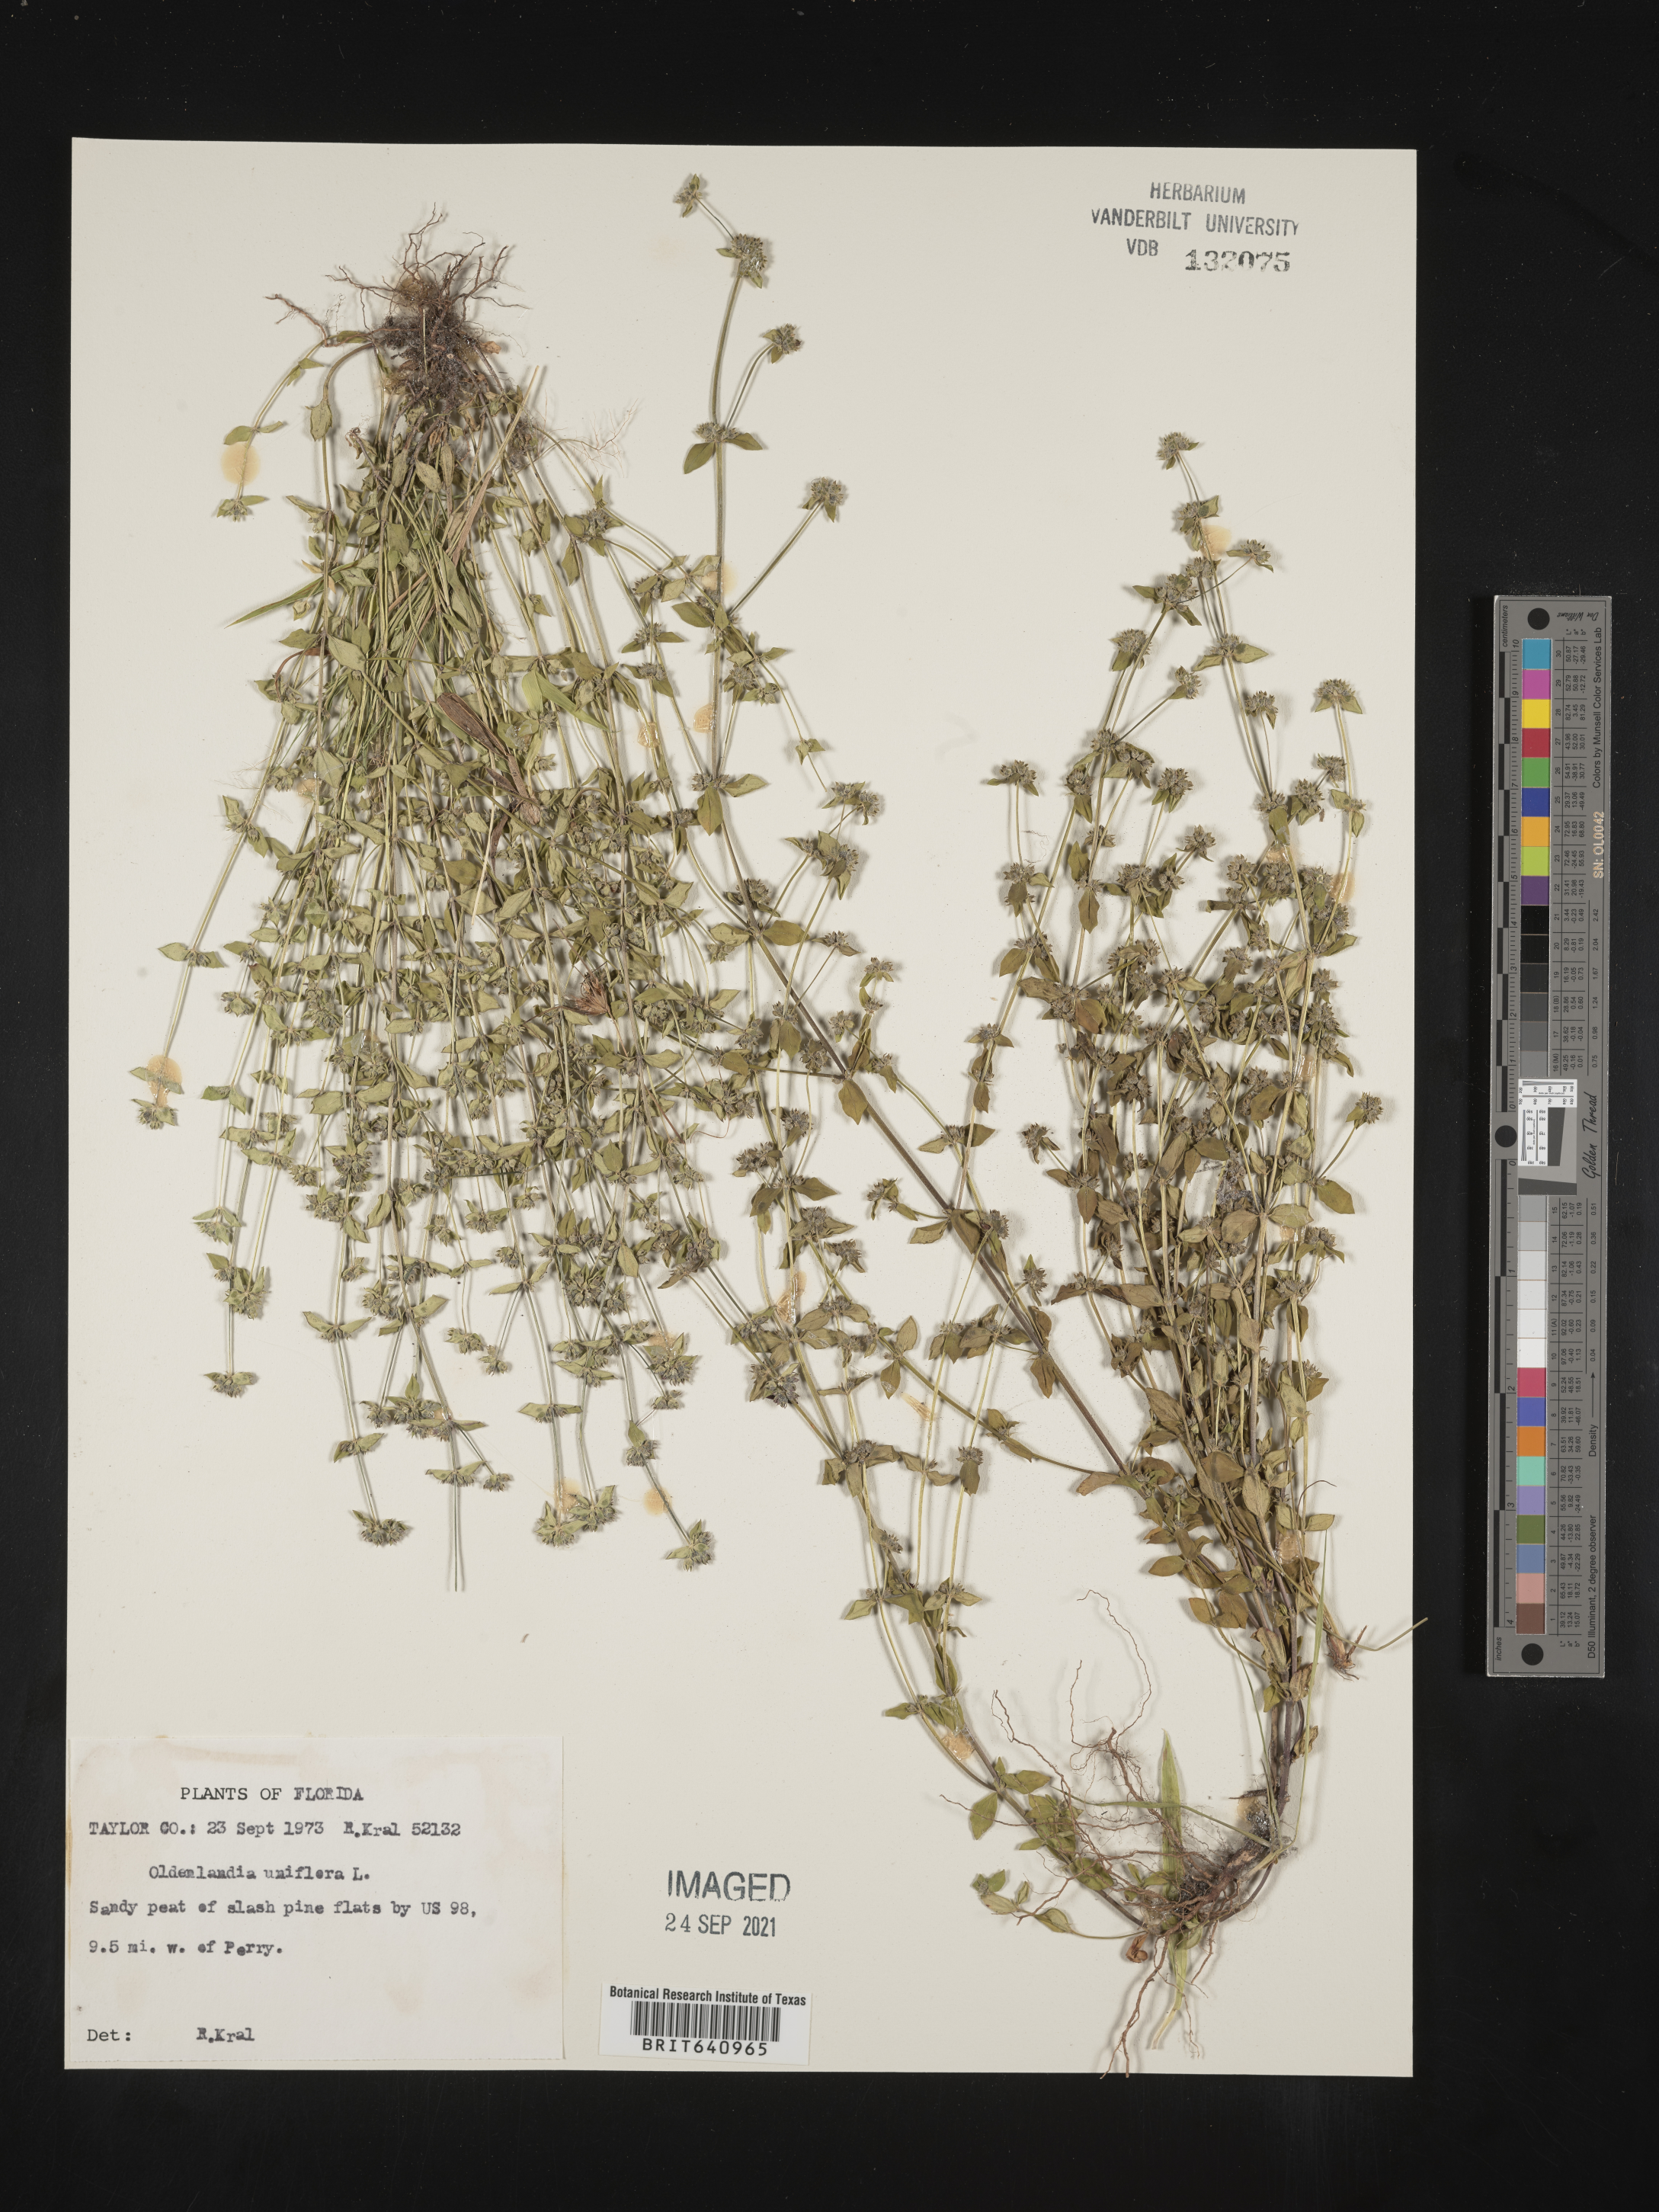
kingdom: Plantae
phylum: Tracheophyta
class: Magnoliopsida
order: Gentianales
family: Rubiaceae
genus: Edrastima
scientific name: Edrastima uniflora
